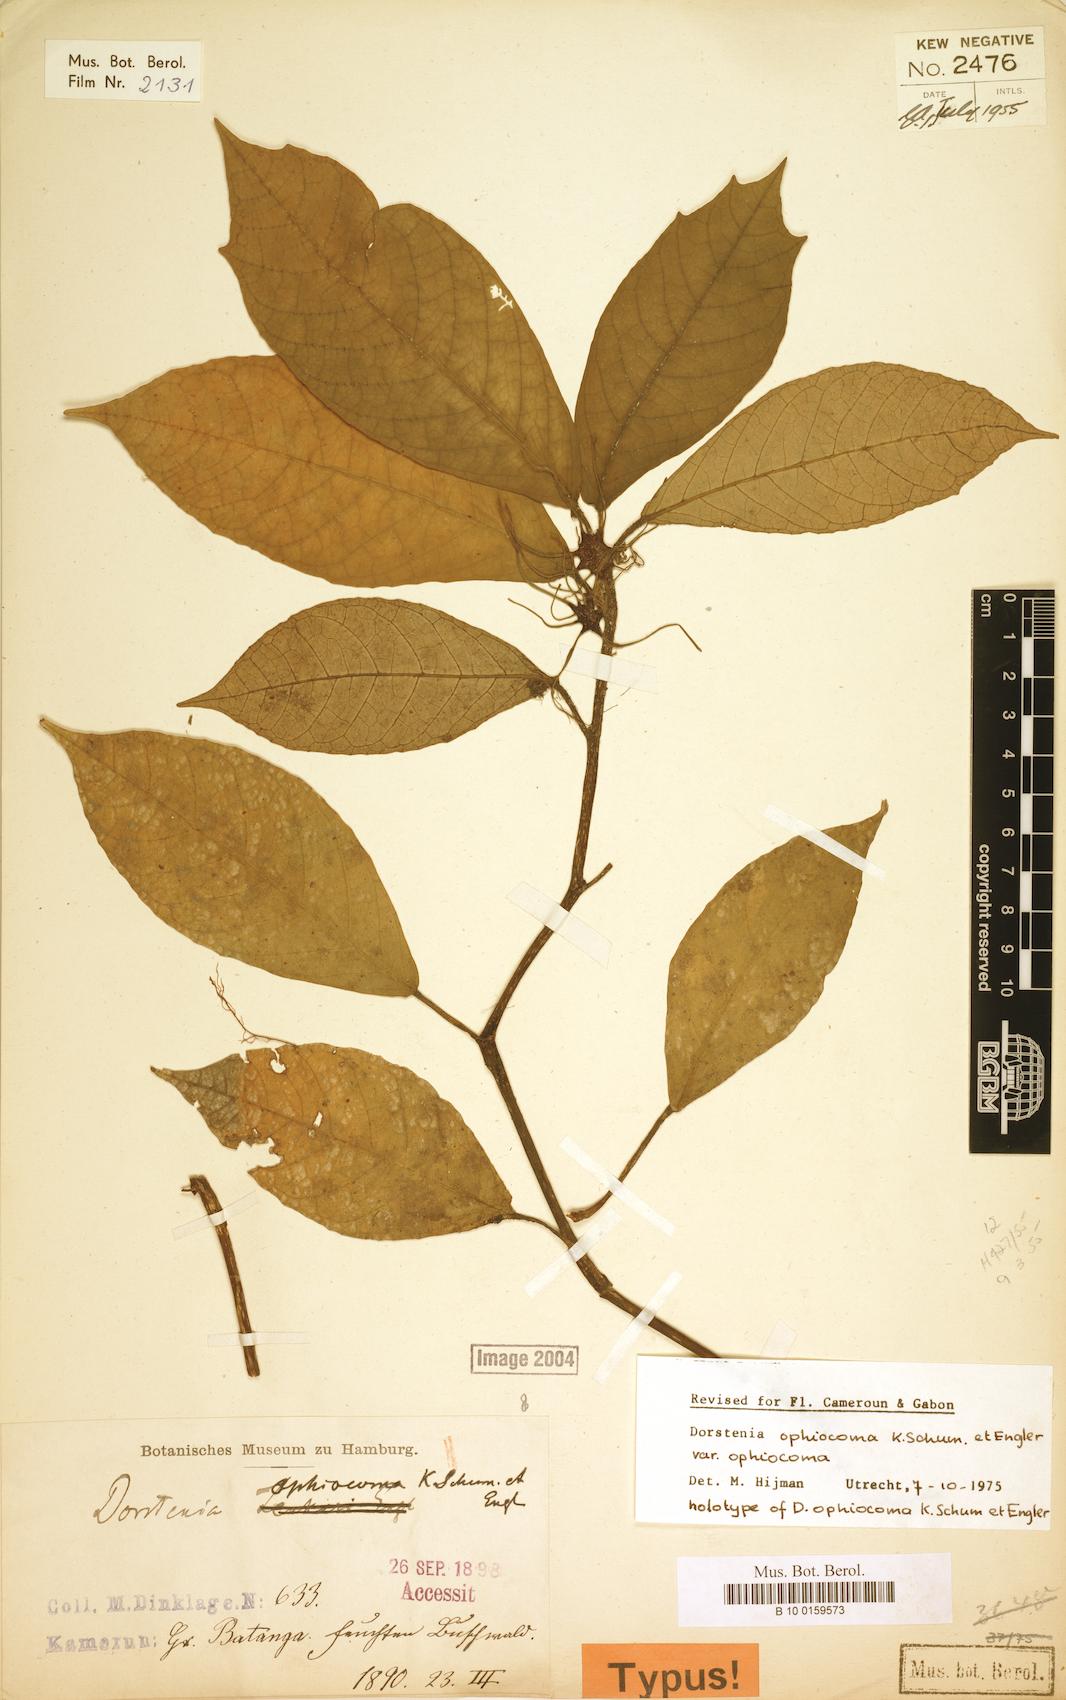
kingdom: Plantae
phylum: Tracheophyta
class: Magnoliopsida
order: Rosales
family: Moraceae
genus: Dorstenia
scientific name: Dorstenia mannii
